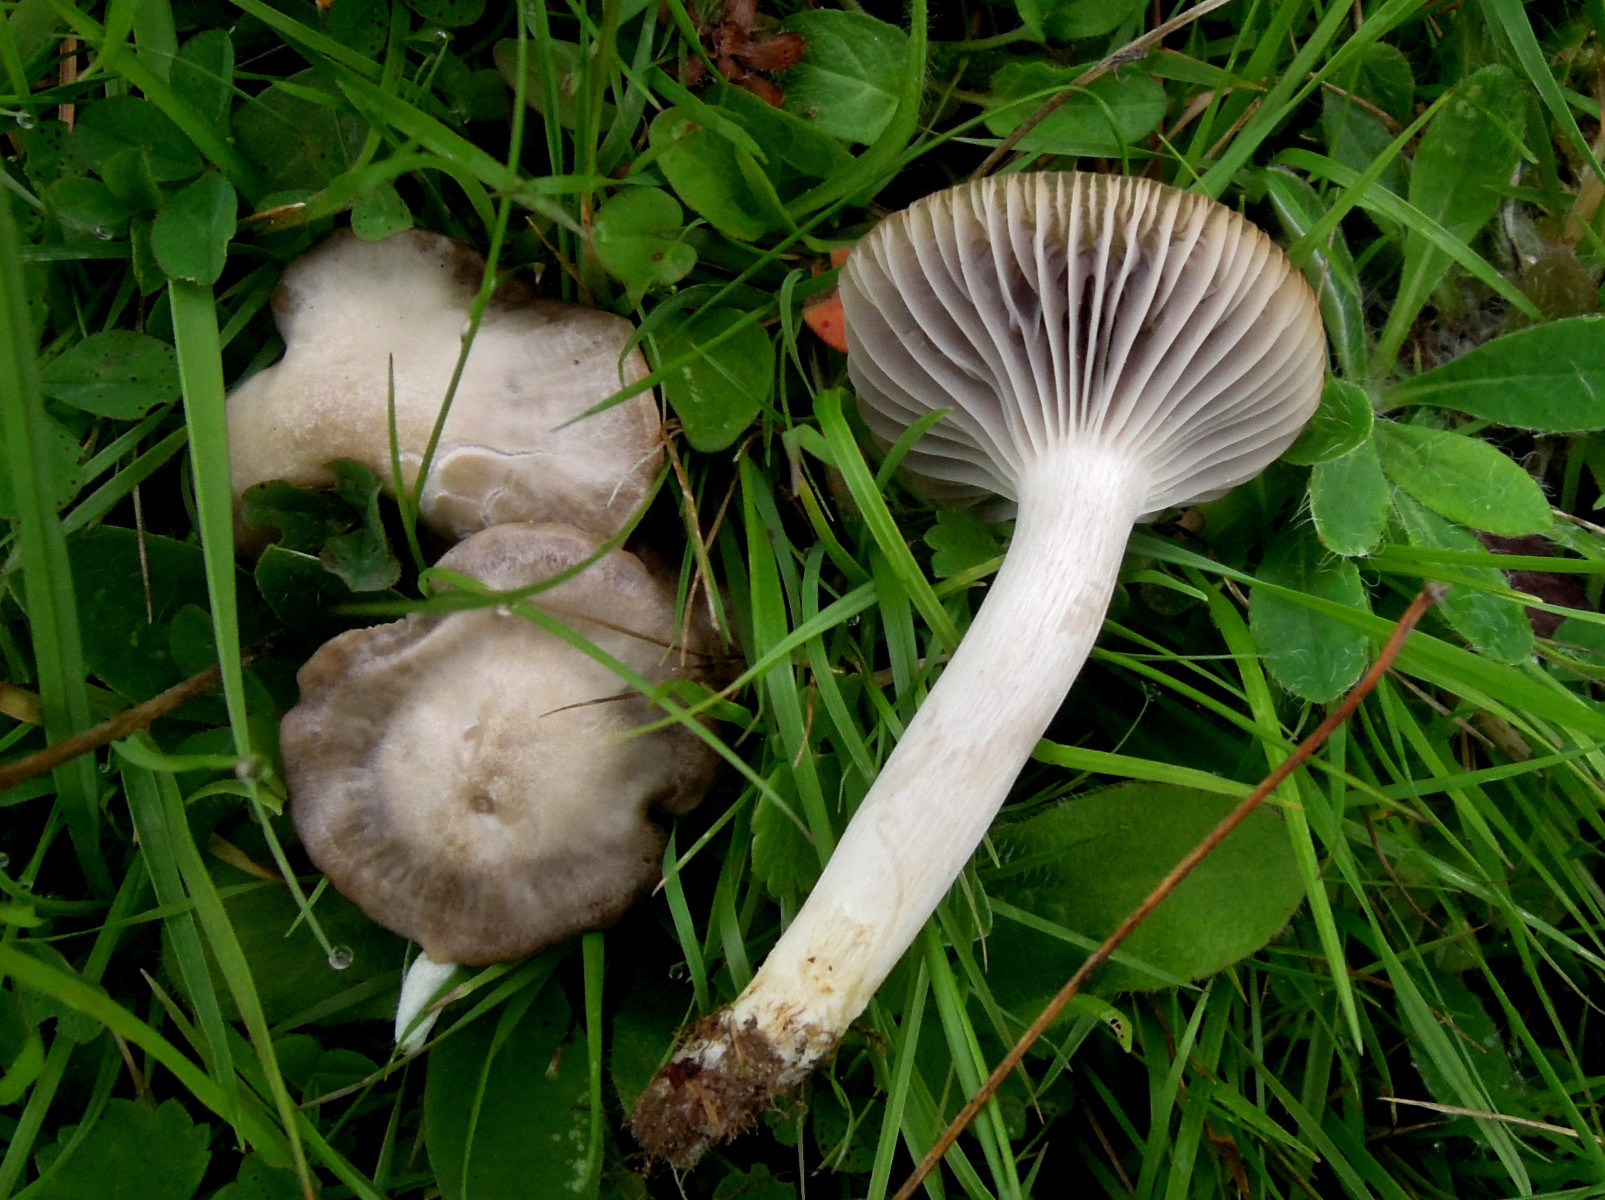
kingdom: Fungi
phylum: Basidiomycota
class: Agaricomycetes
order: Agaricales
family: Hygrophoraceae
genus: Cuphophyllus
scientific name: Cuphophyllus flavipes
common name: gulfodet vokshat
